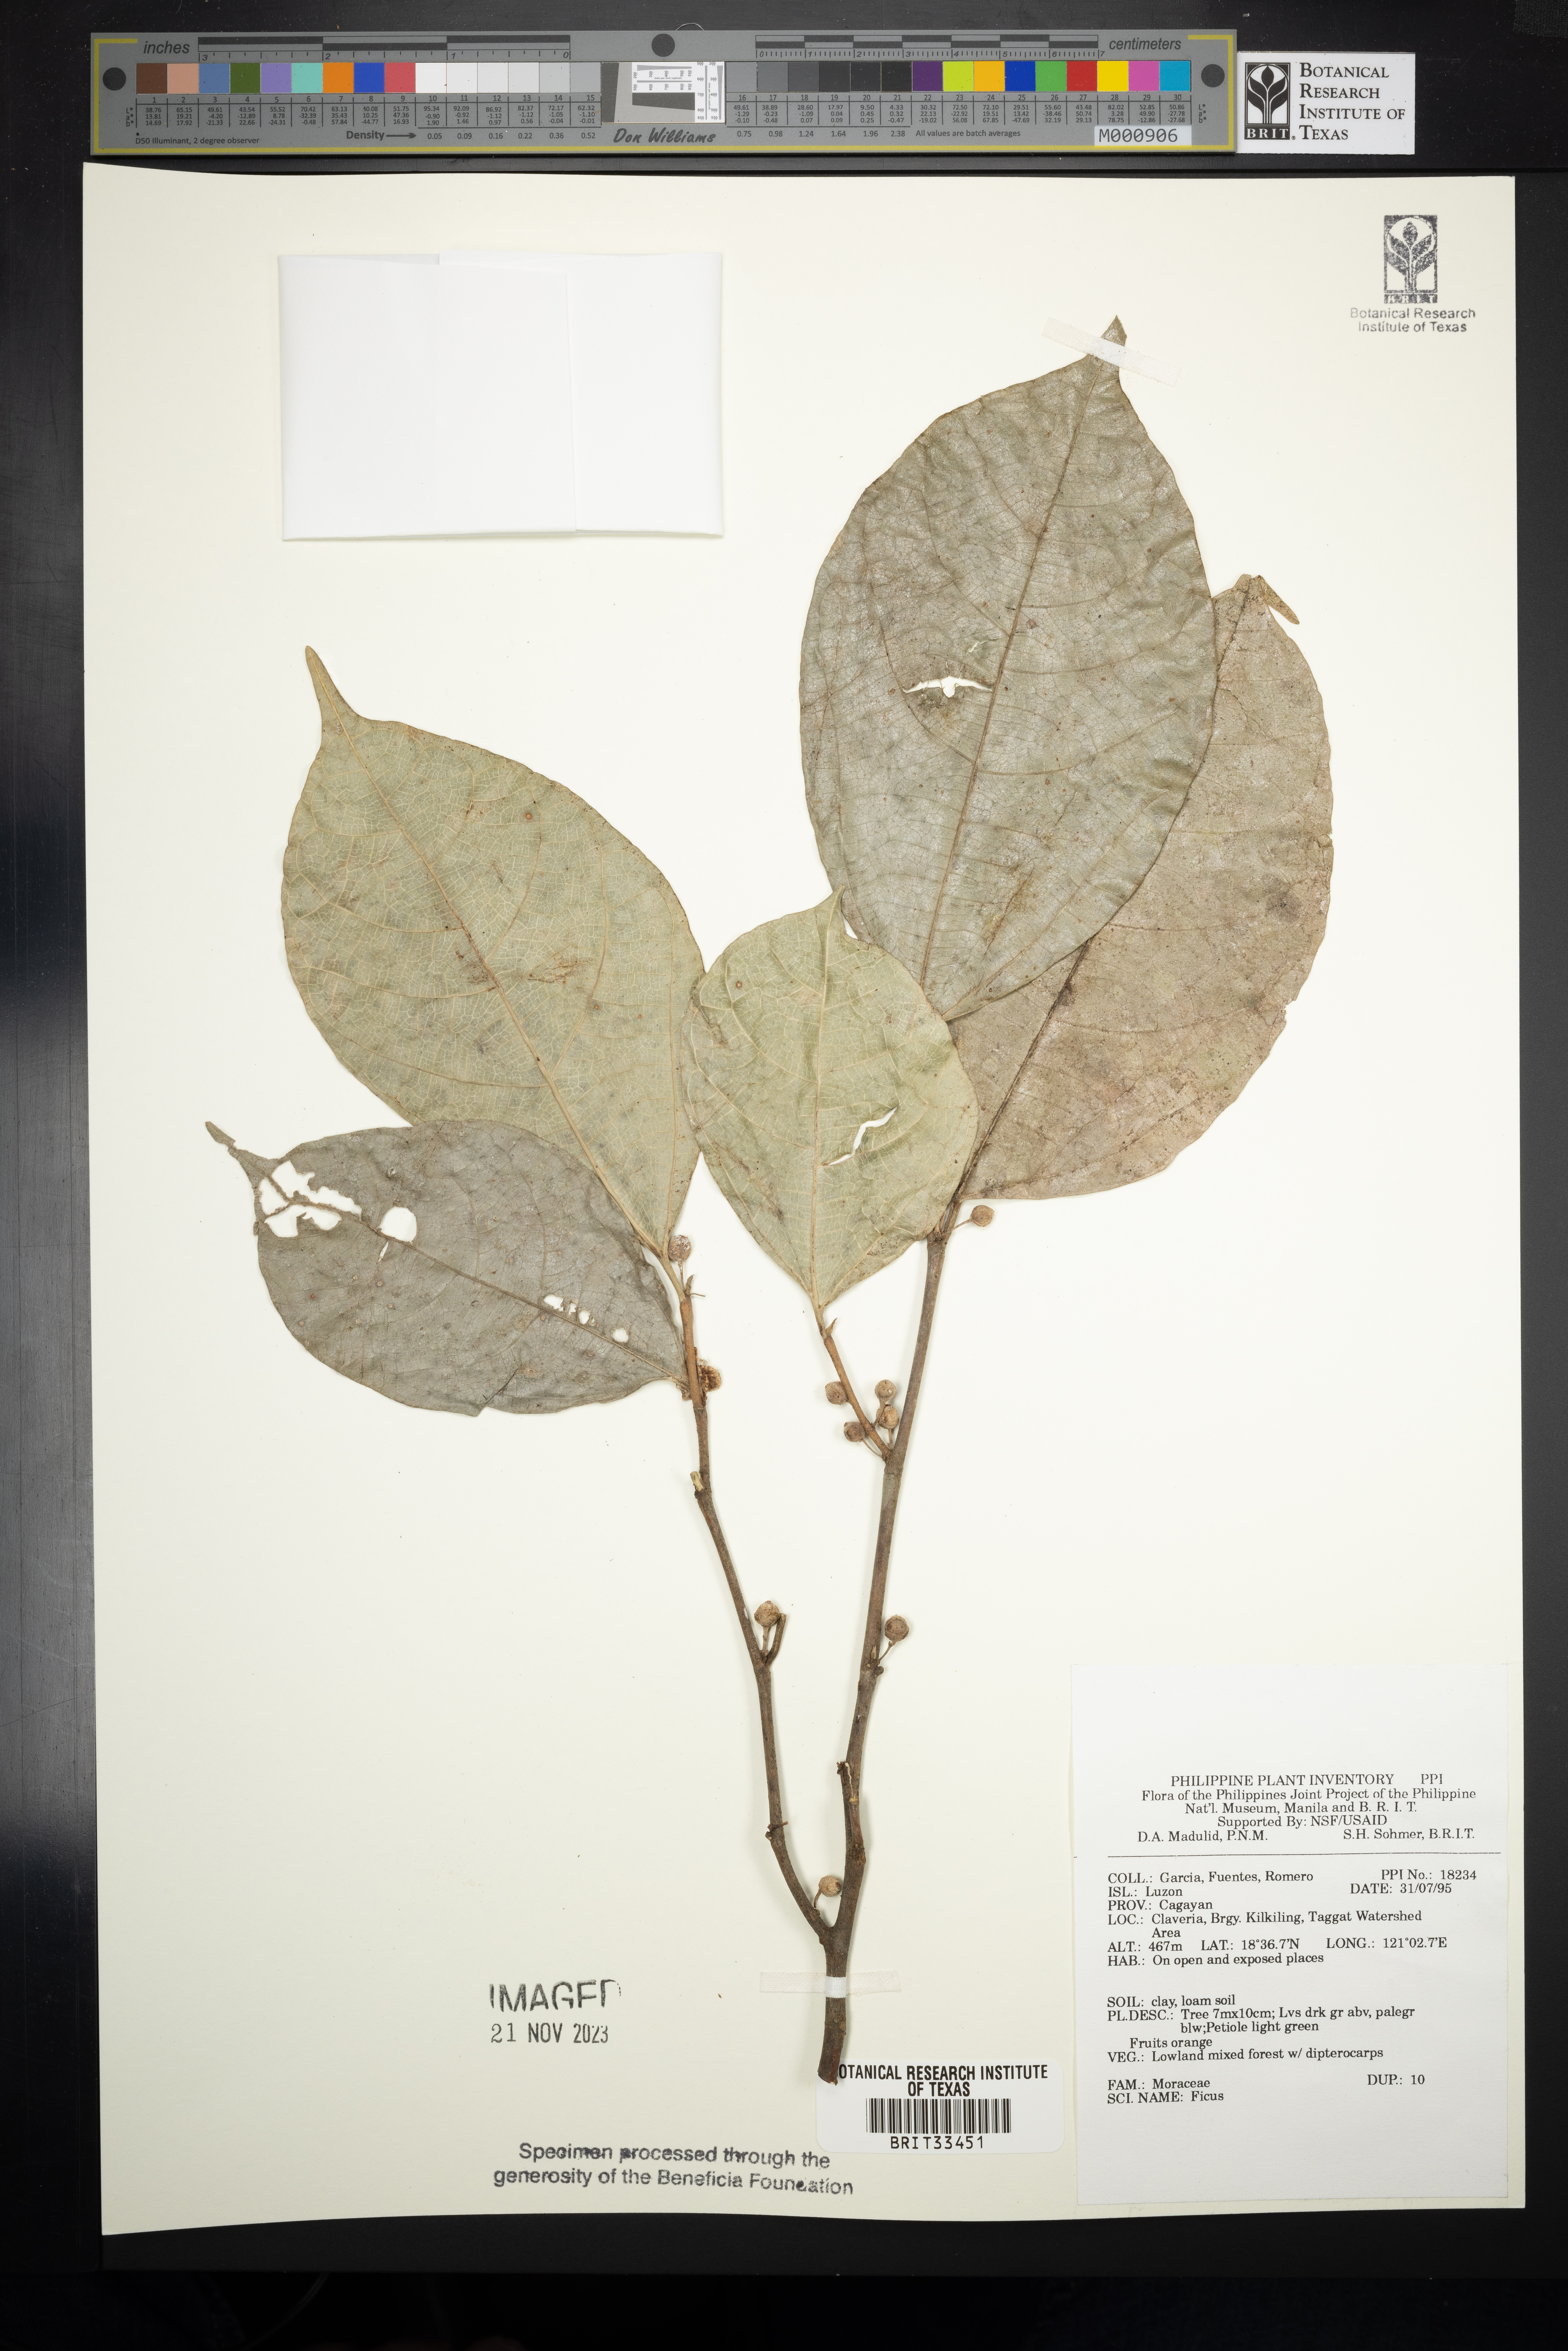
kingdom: Plantae
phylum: Tracheophyta
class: Magnoliopsida
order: Rosales
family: Moraceae
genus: Ficus
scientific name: Ficus
